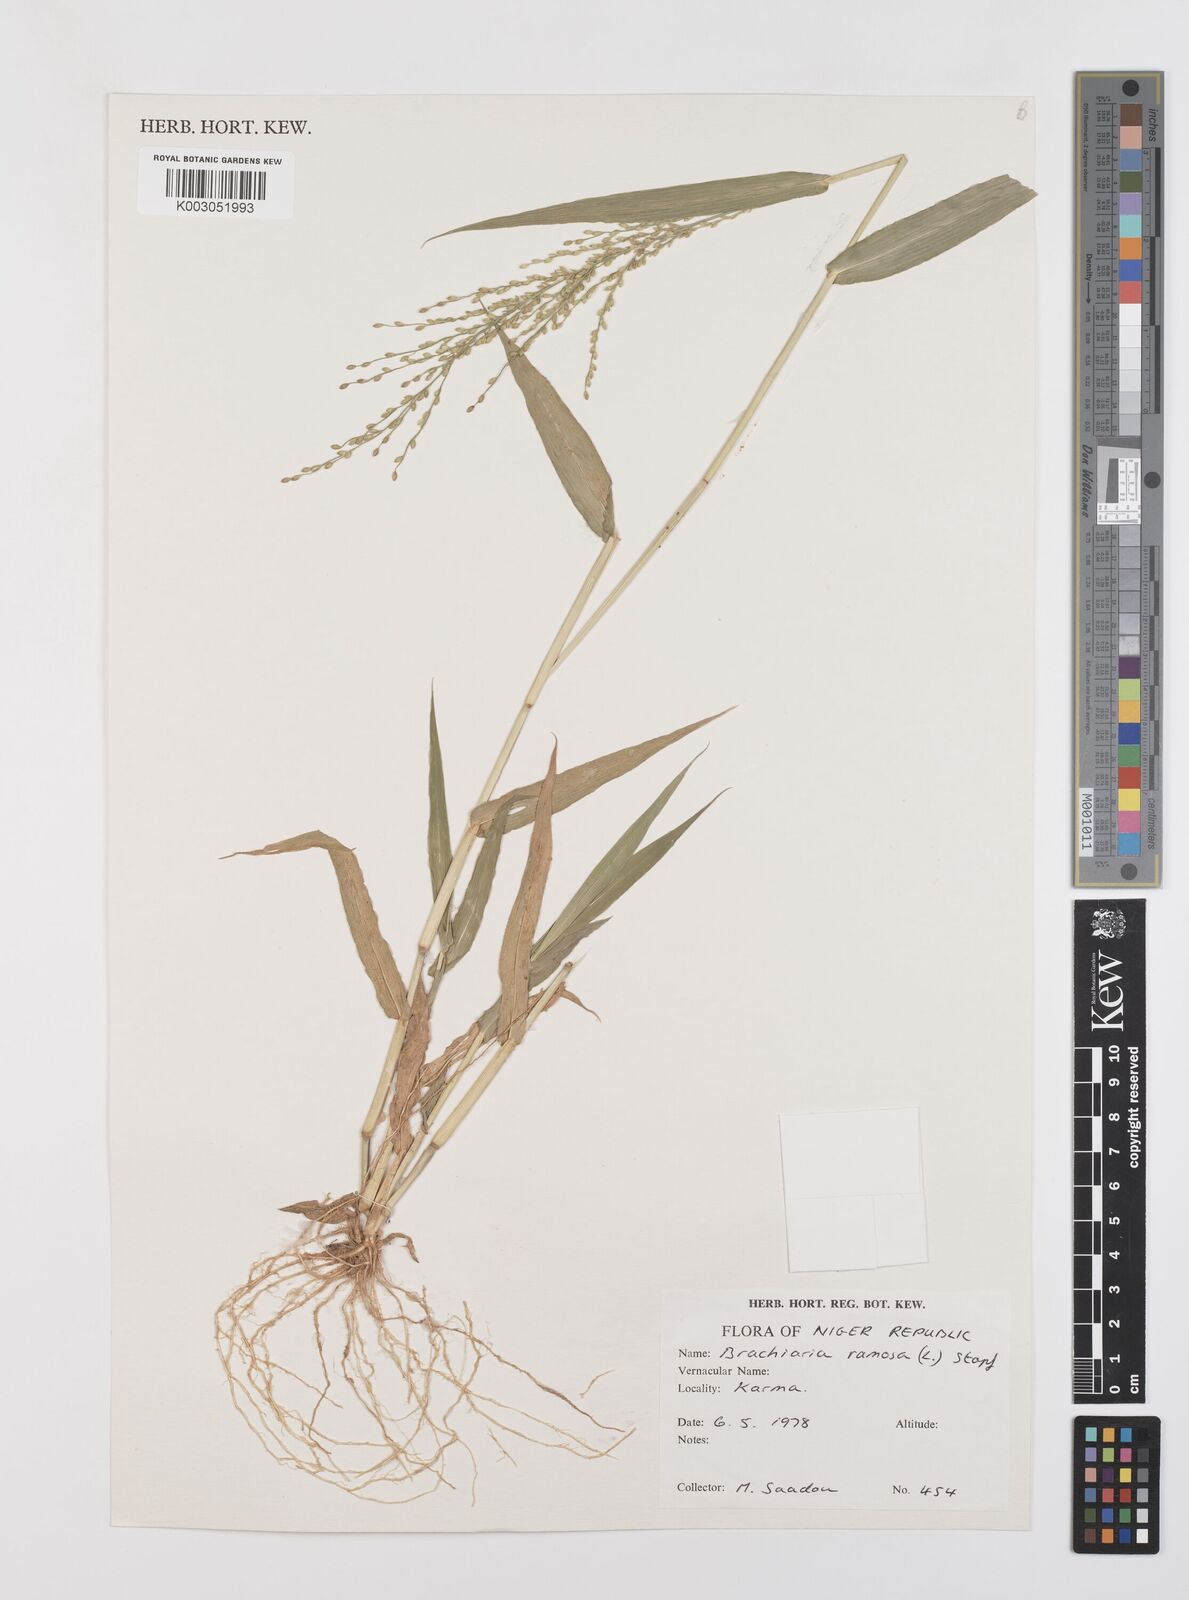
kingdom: Plantae
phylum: Tracheophyta
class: Liliopsida
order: Poales
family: Poaceae
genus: Urochloa
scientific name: Urochloa ramosa
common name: Browntop millet
